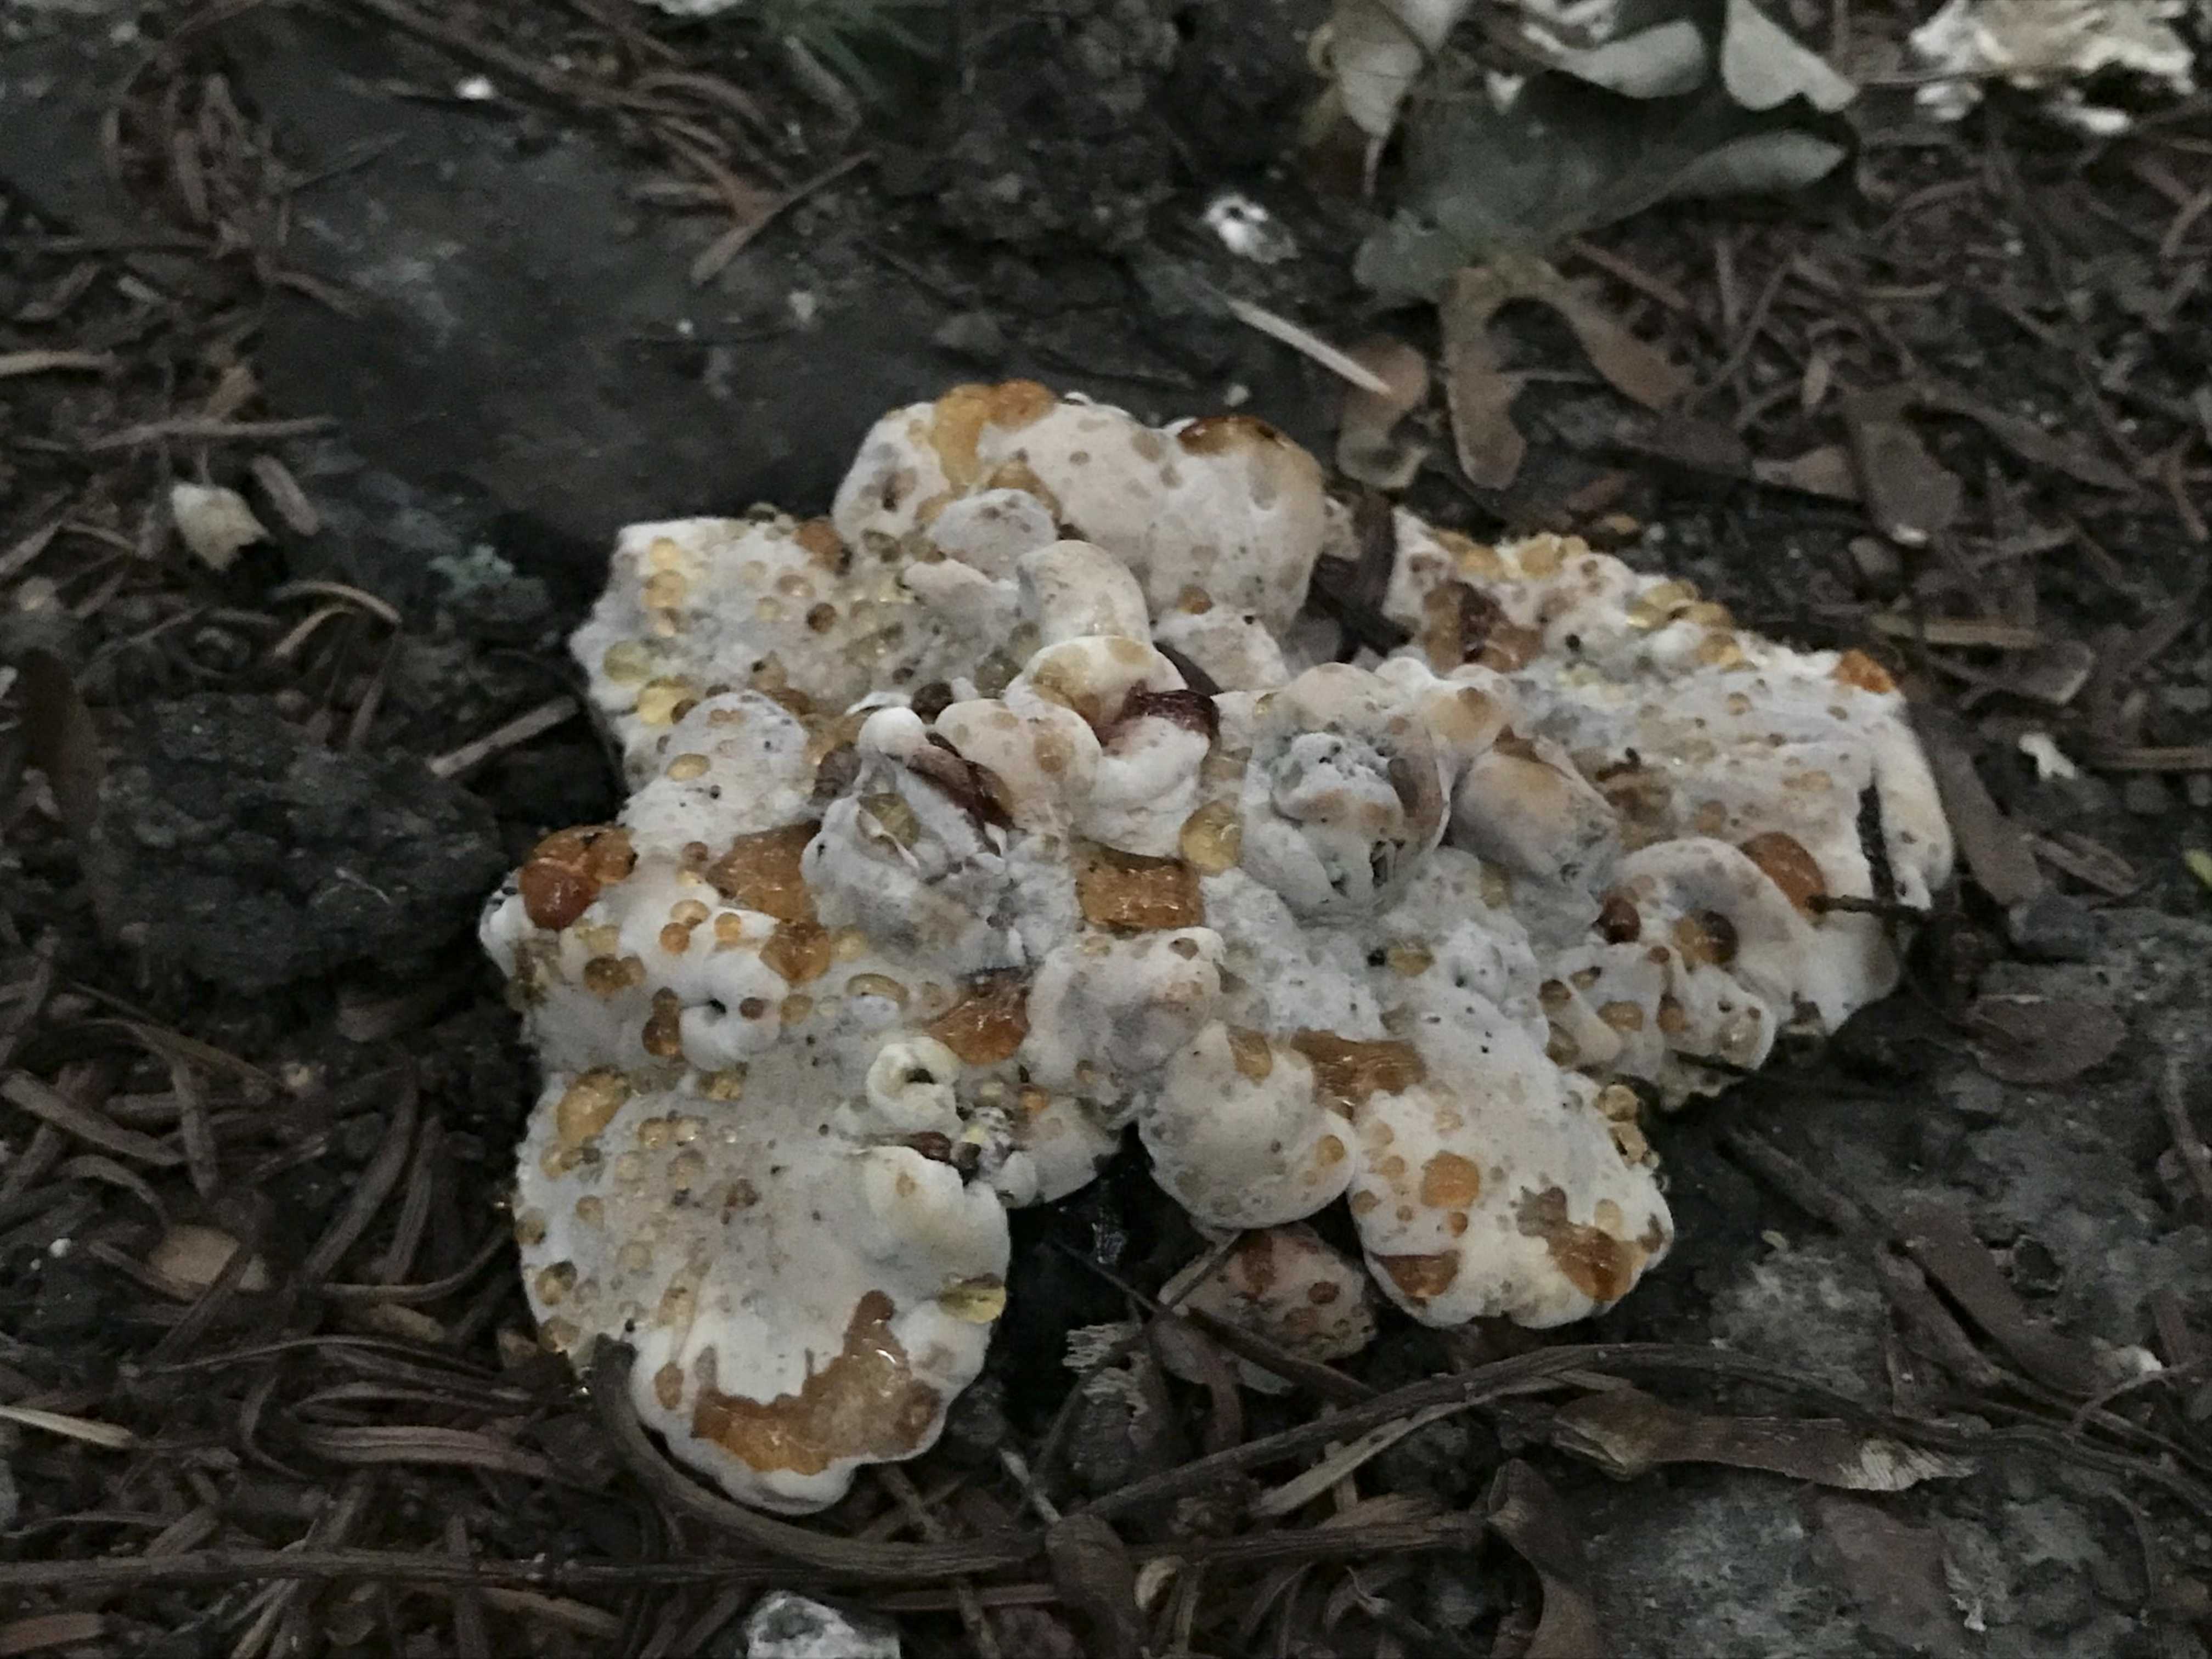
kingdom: Fungi
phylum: Basidiomycota
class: Agaricomycetes
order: Polyporales
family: Ischnodermataceae
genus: Ischnoderma
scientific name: Ischnoderma resinosum
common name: løv-tjæreporesvamp
